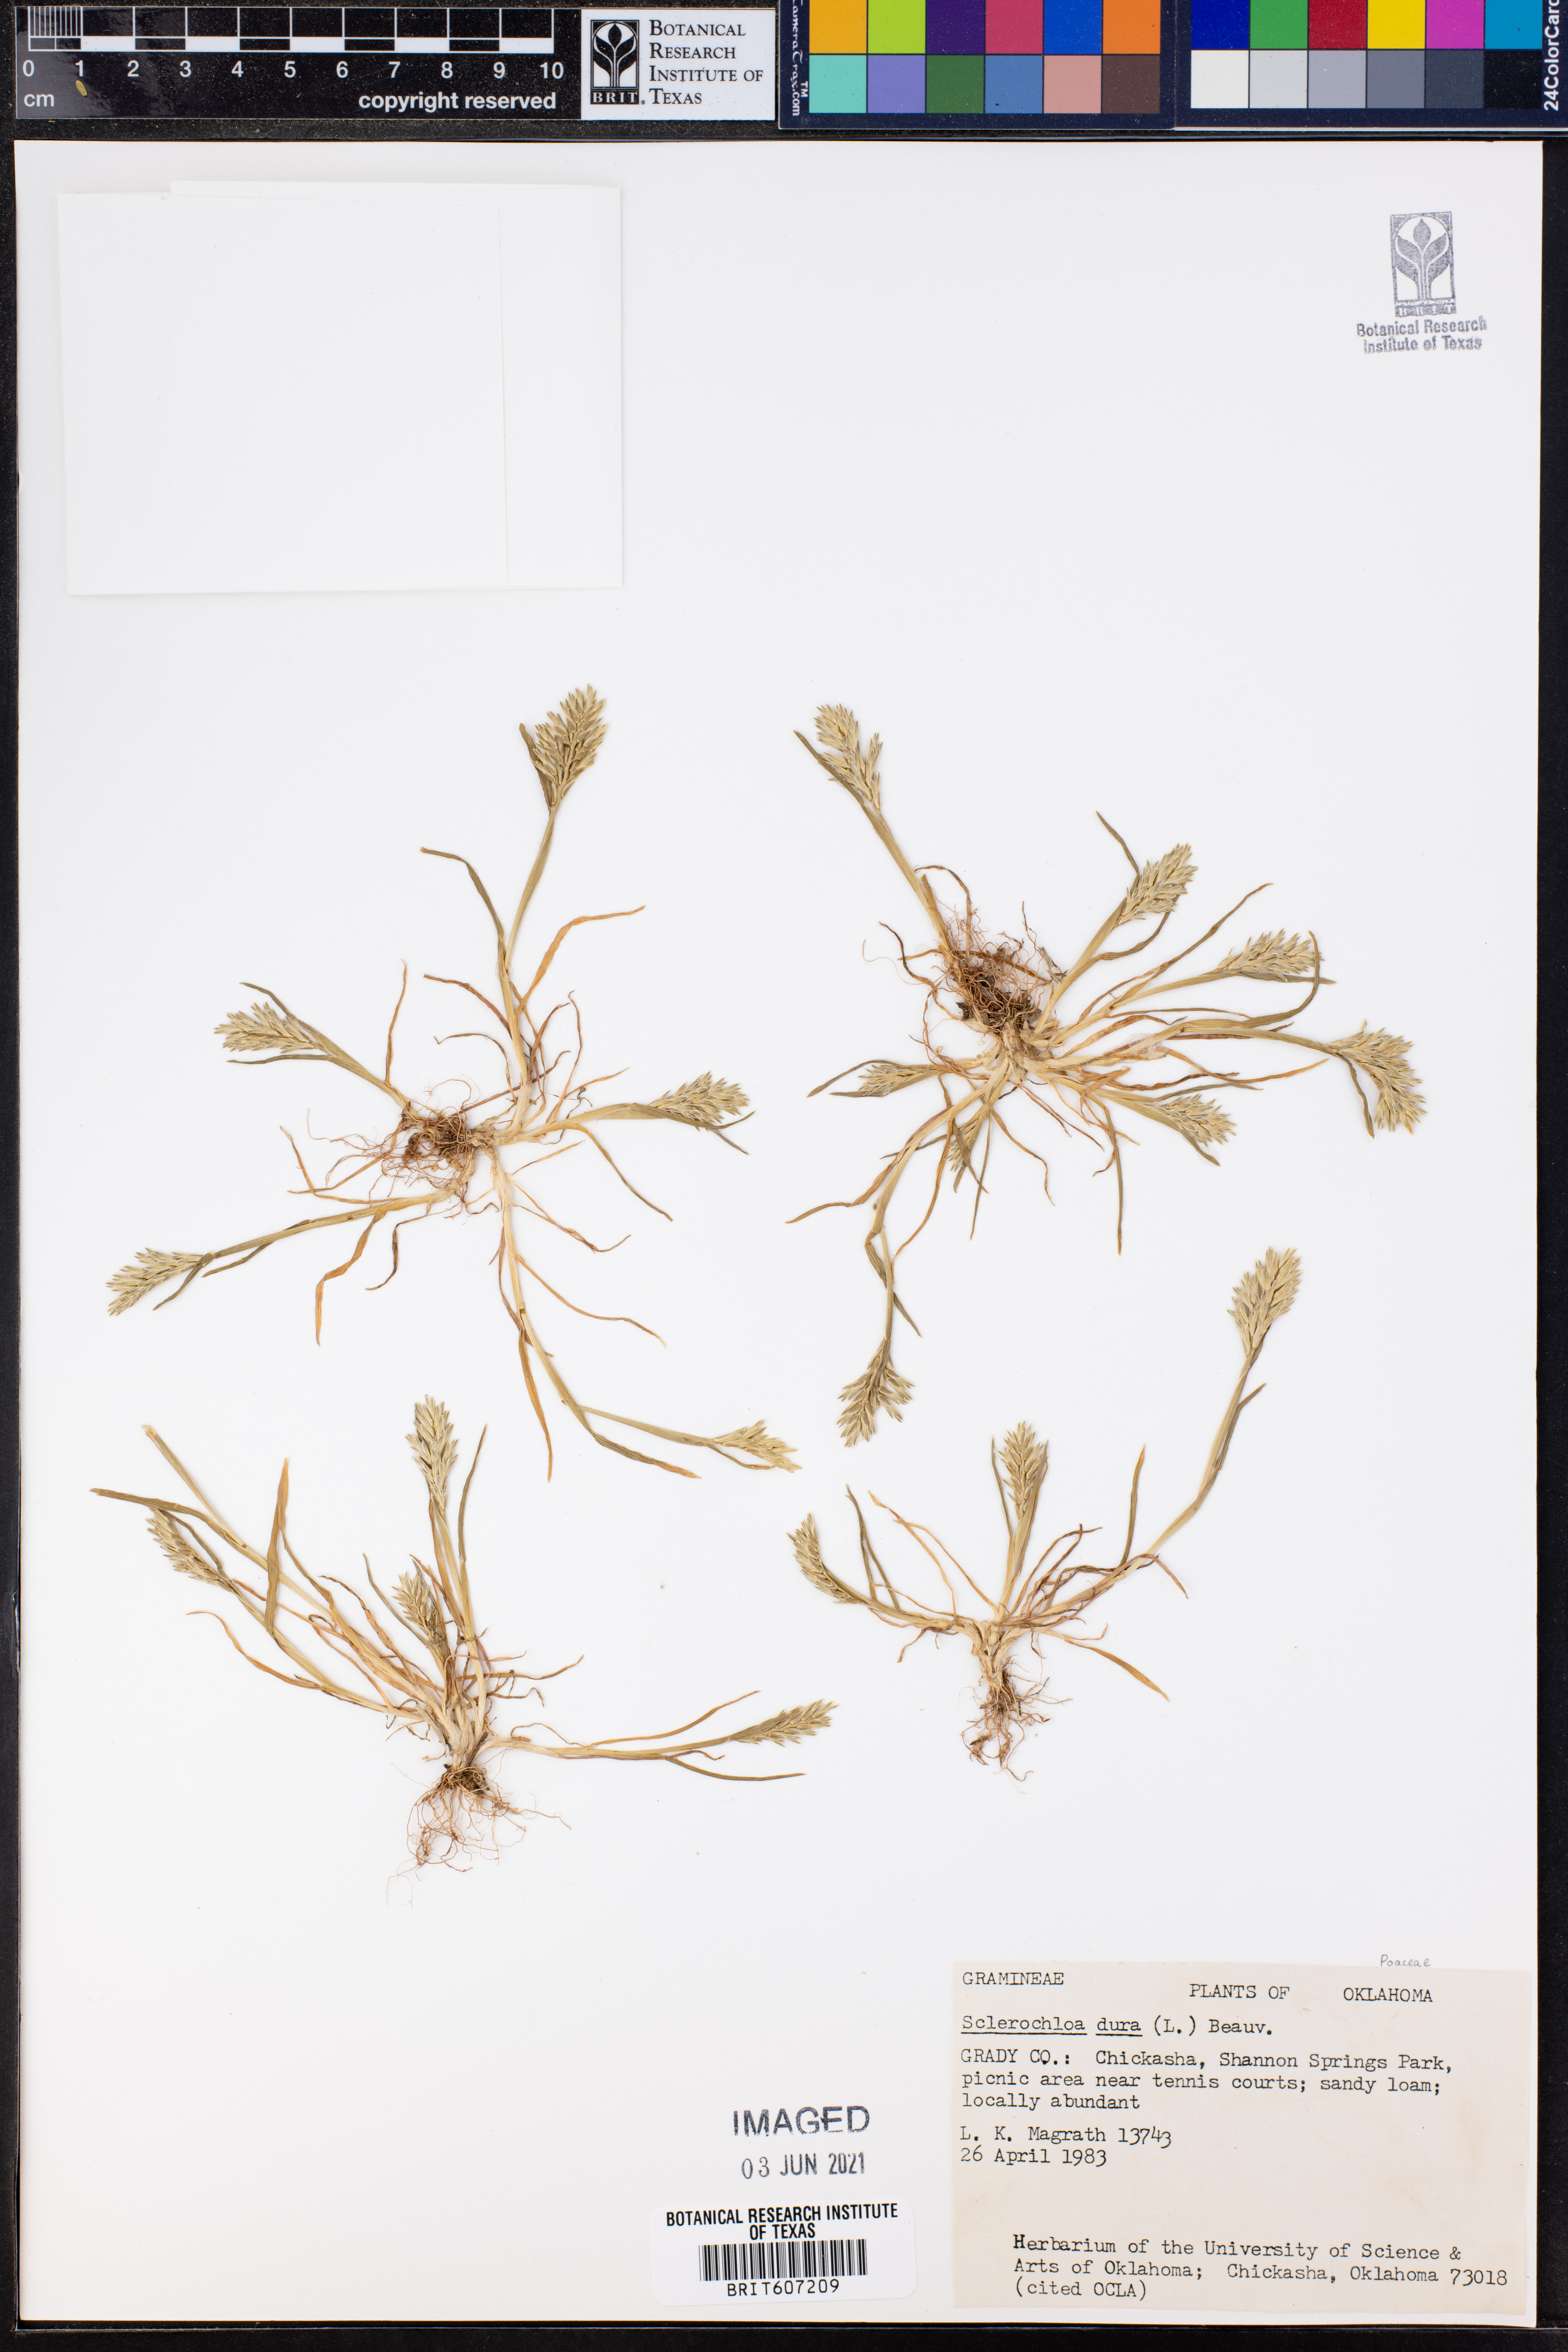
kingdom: Plantae
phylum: Tracheophyta
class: Liliopsida
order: Poales
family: Poaceae
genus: Sclerochloa
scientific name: Sclerochloa dura
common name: Common hardgrass
